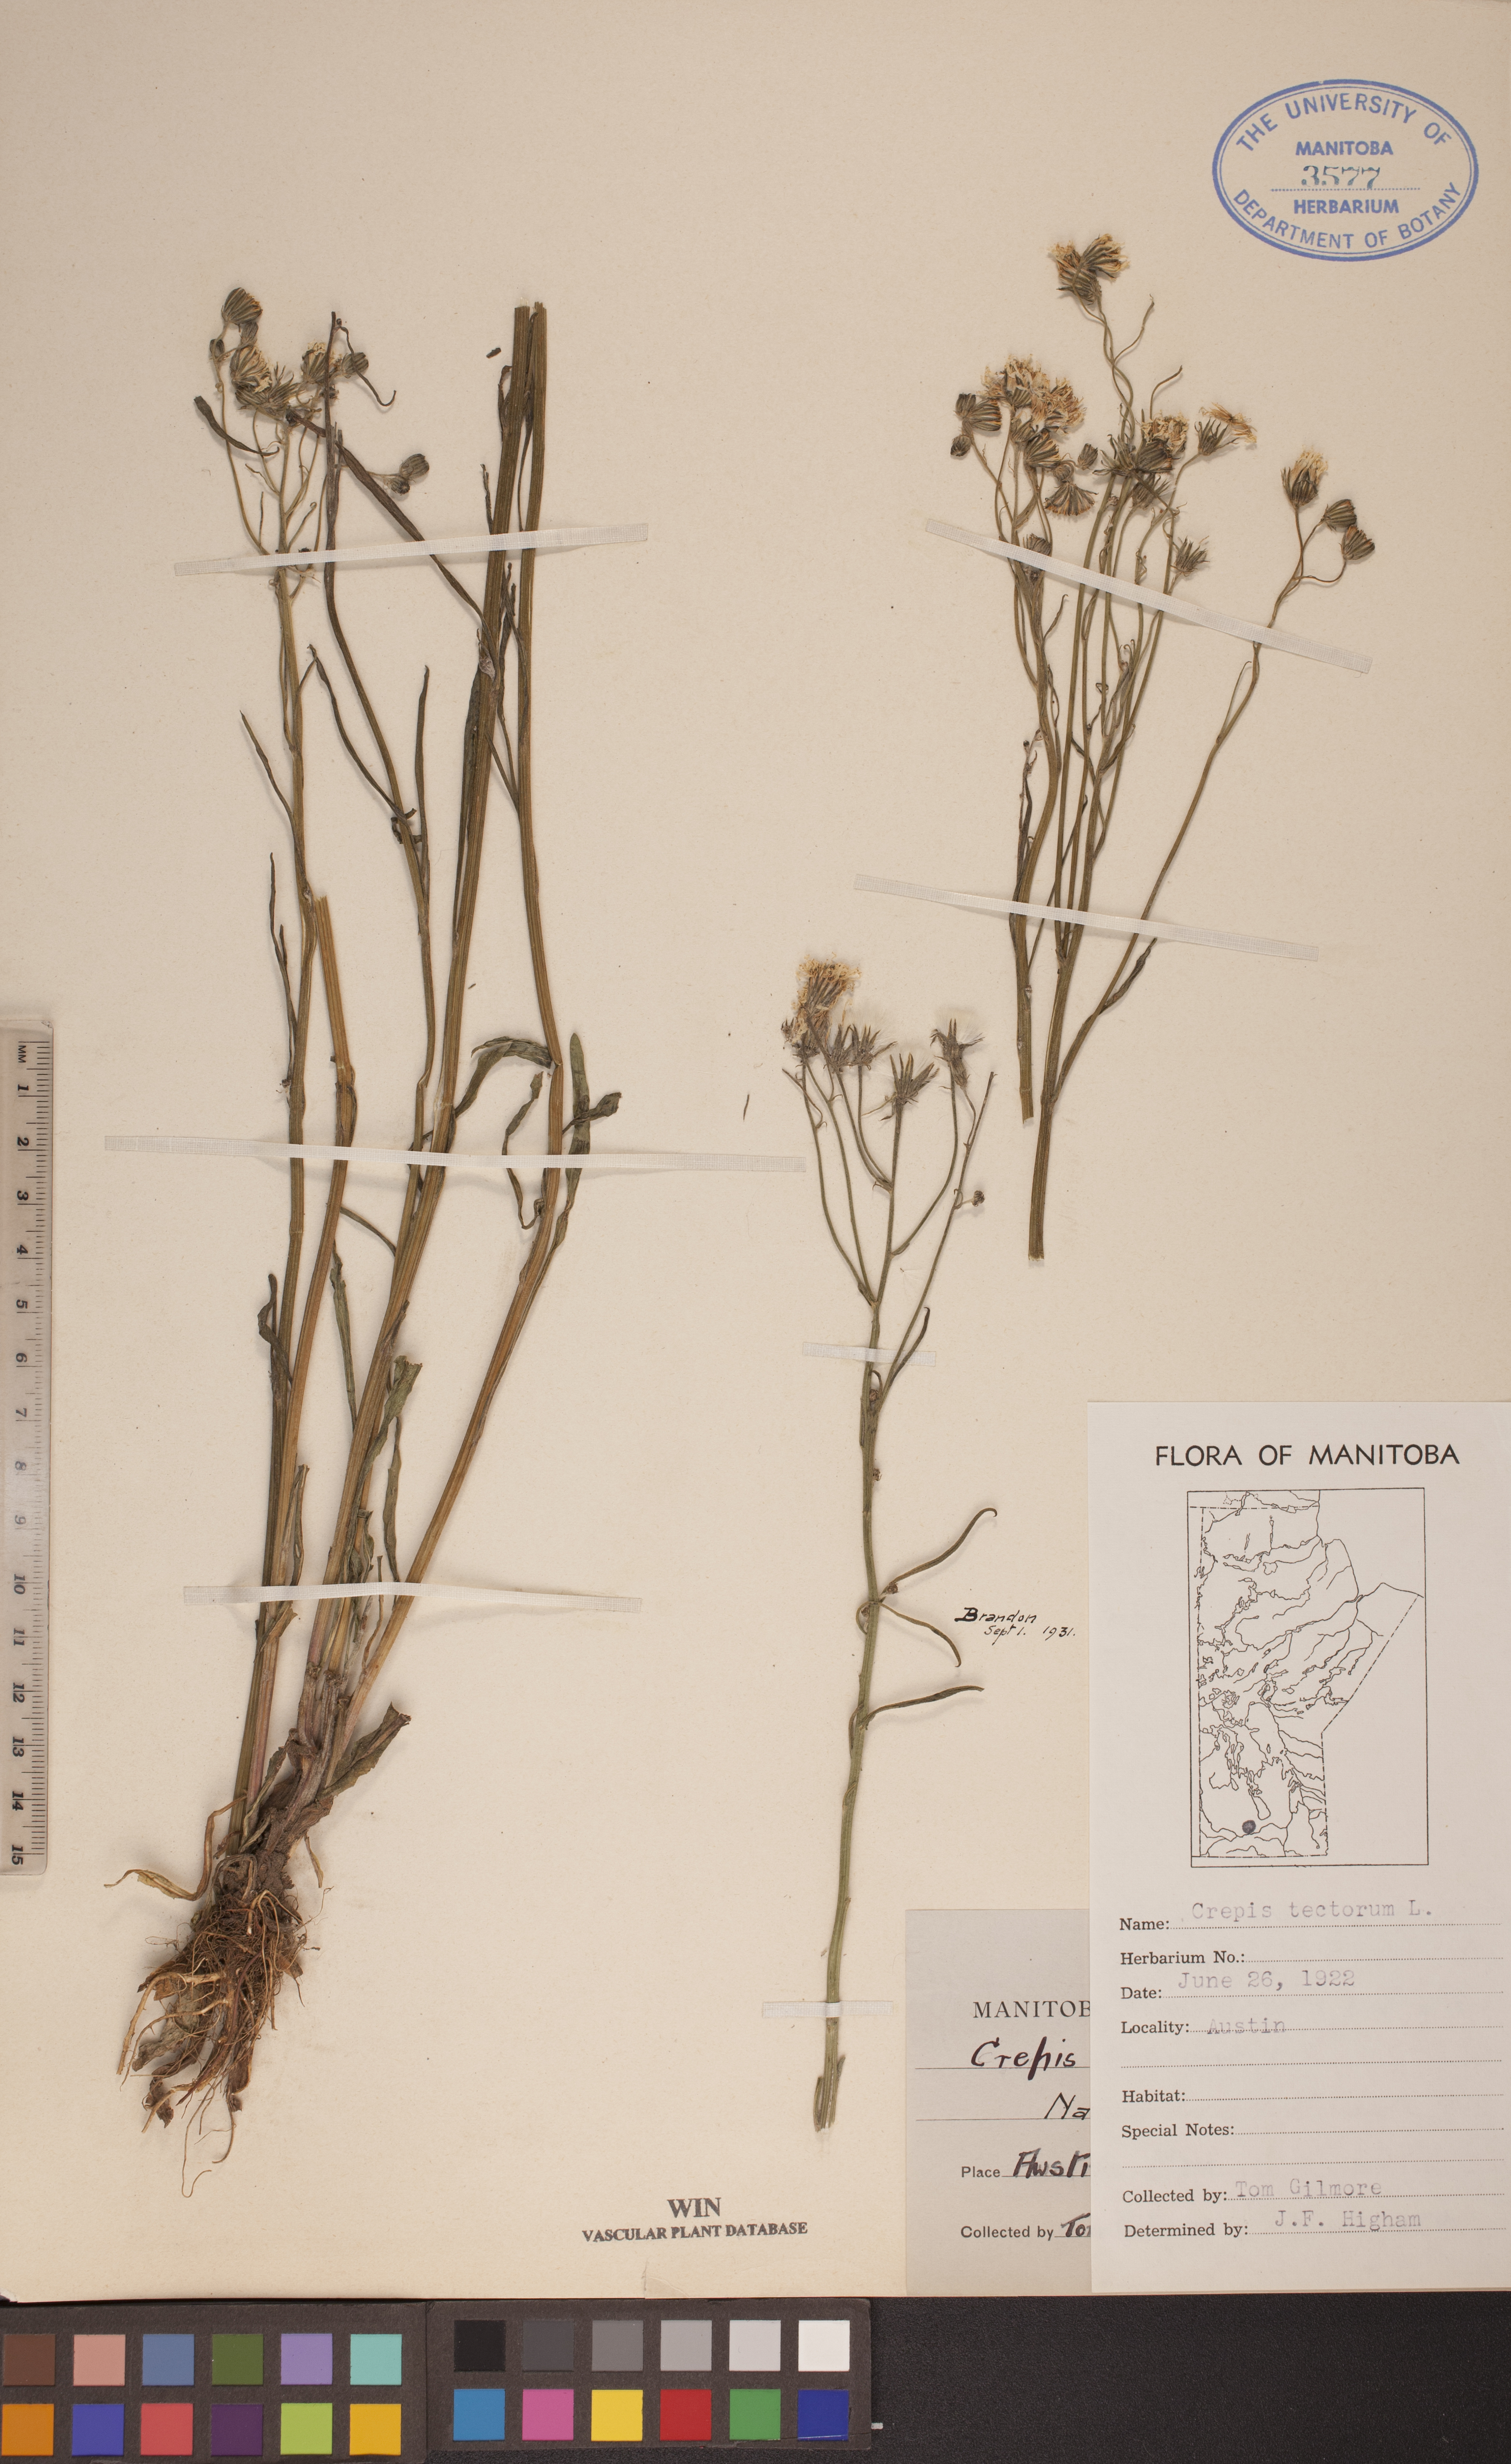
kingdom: Plantae
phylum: Tracheophyta
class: Magnoliopsida
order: Asterales
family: Asteraceae
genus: Crepis
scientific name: Crepis tectorum
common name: Narrow-leaved hawk's-beard
